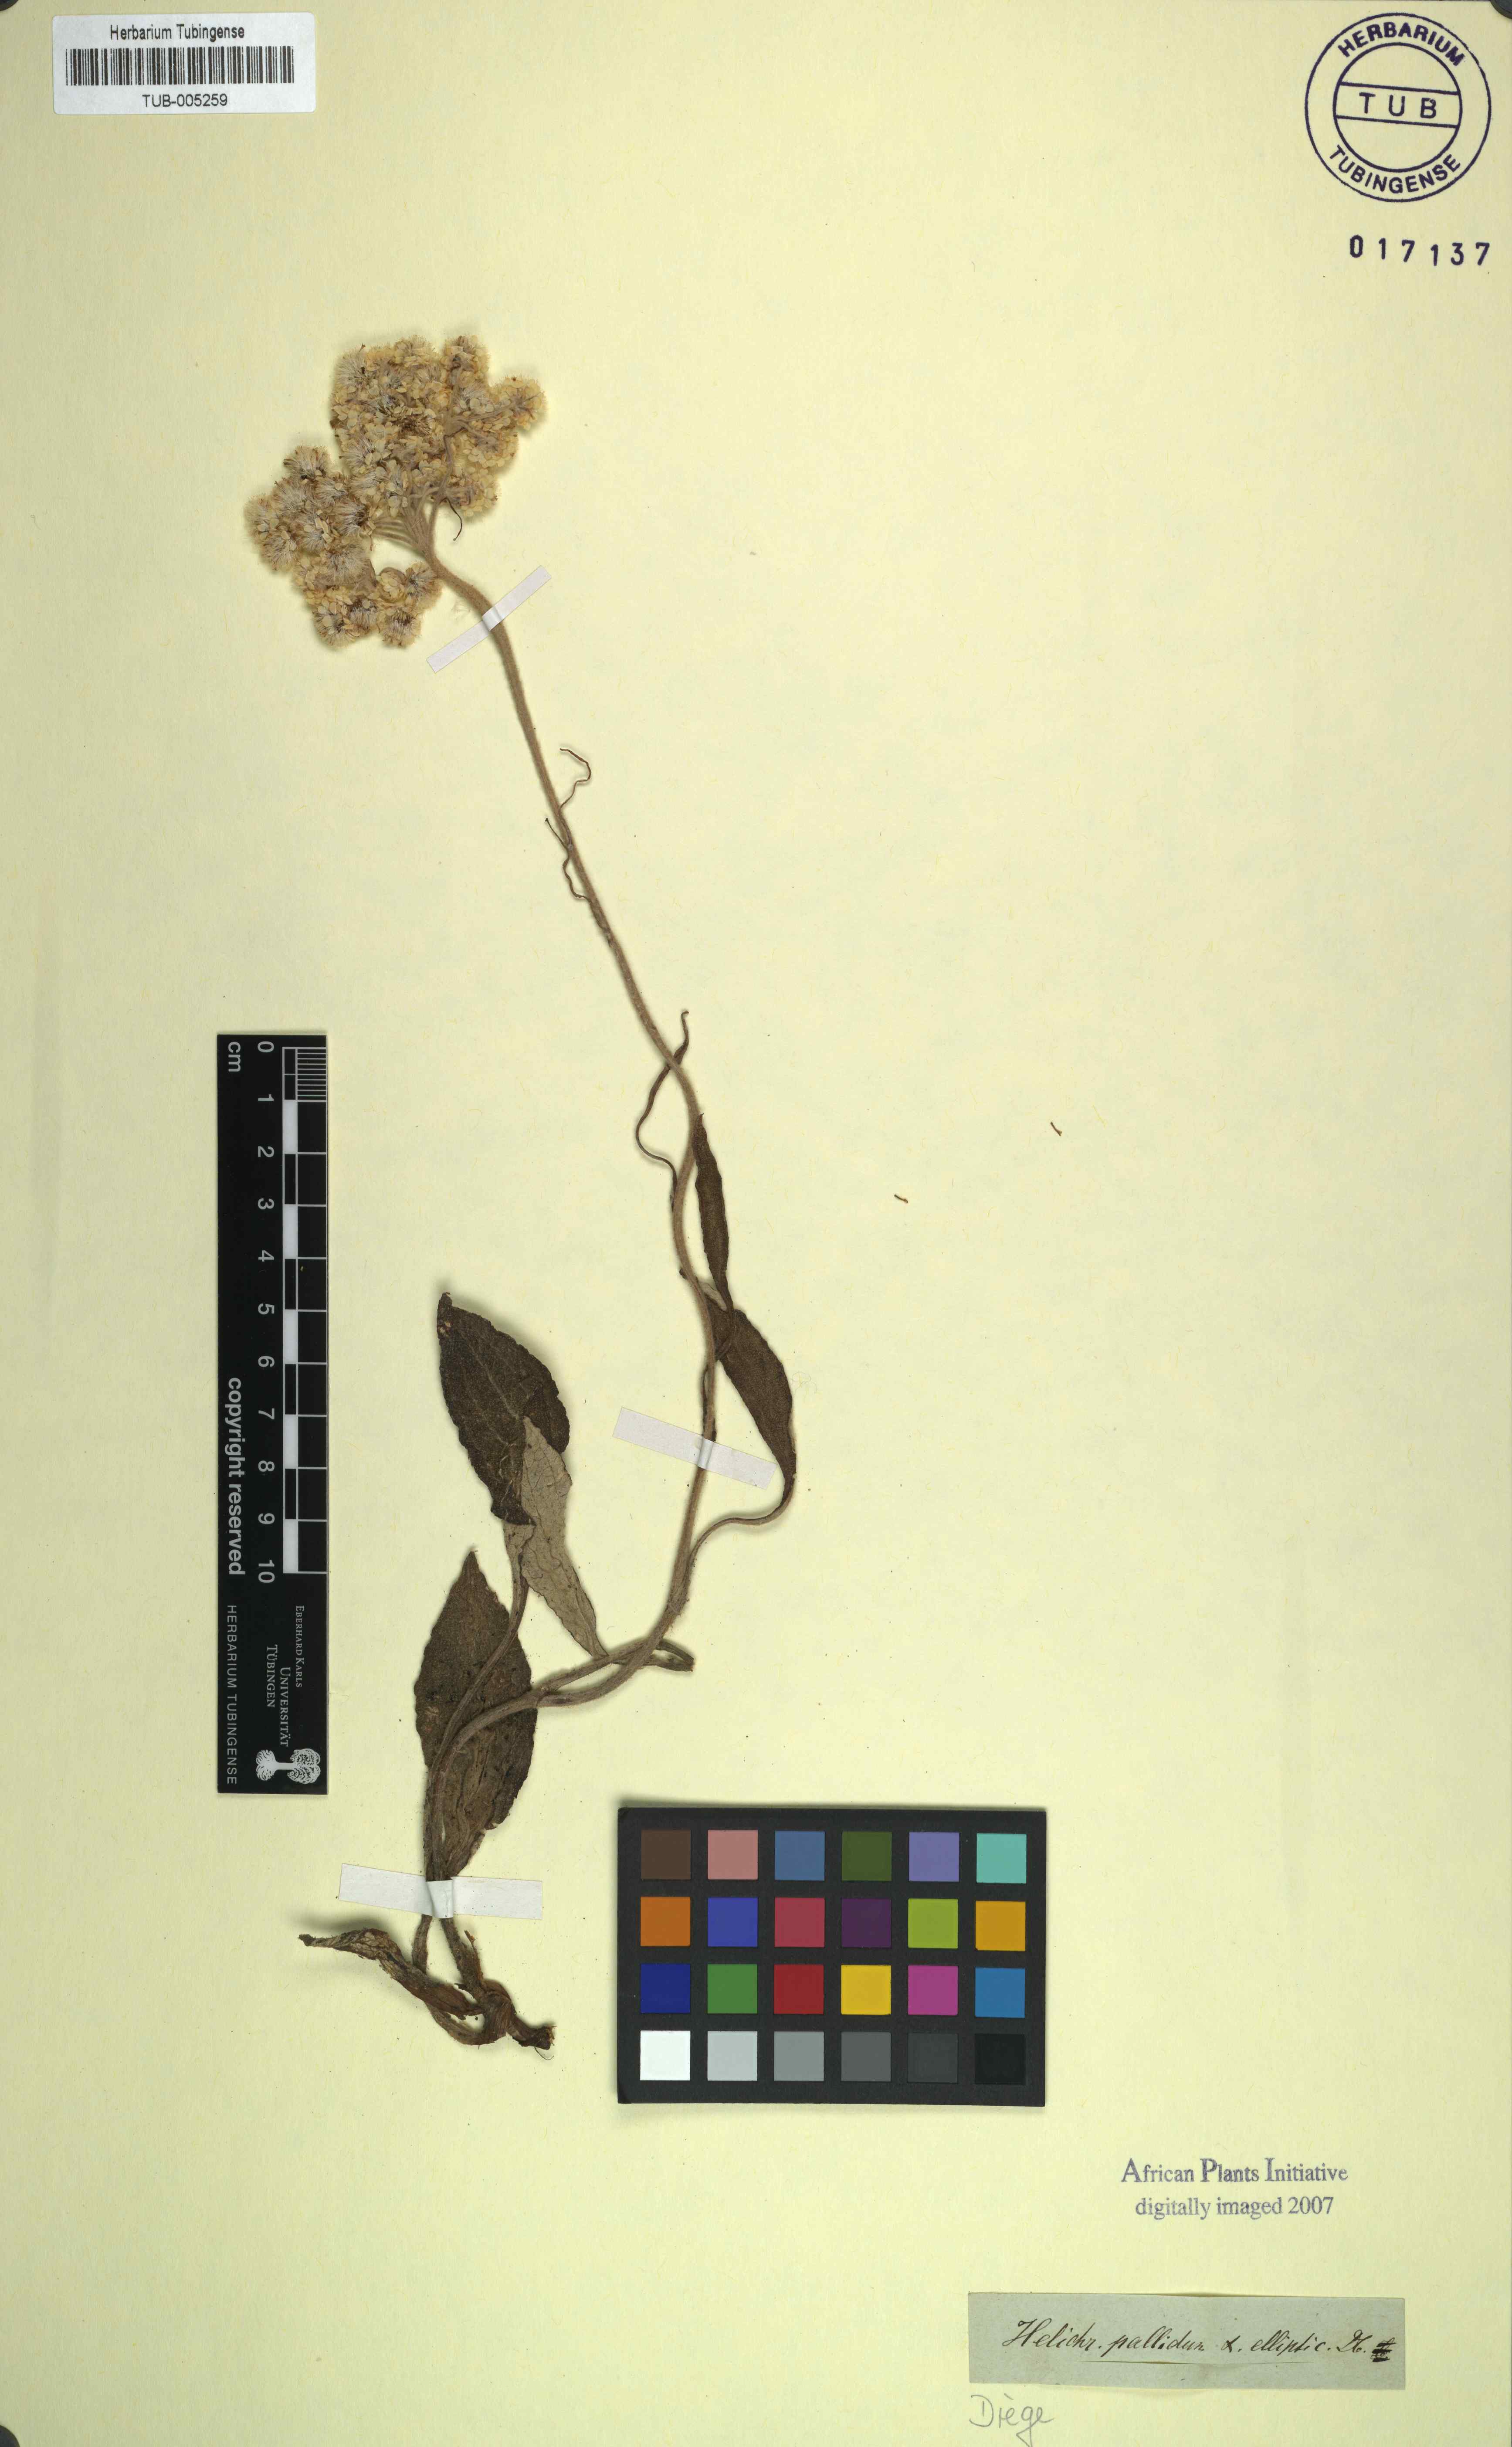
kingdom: Plantae
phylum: Tracheophyta
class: Magnoliopsida
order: Asterales
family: Asteraceae
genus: Helichrysum
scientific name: Helichrysum nudifolium
